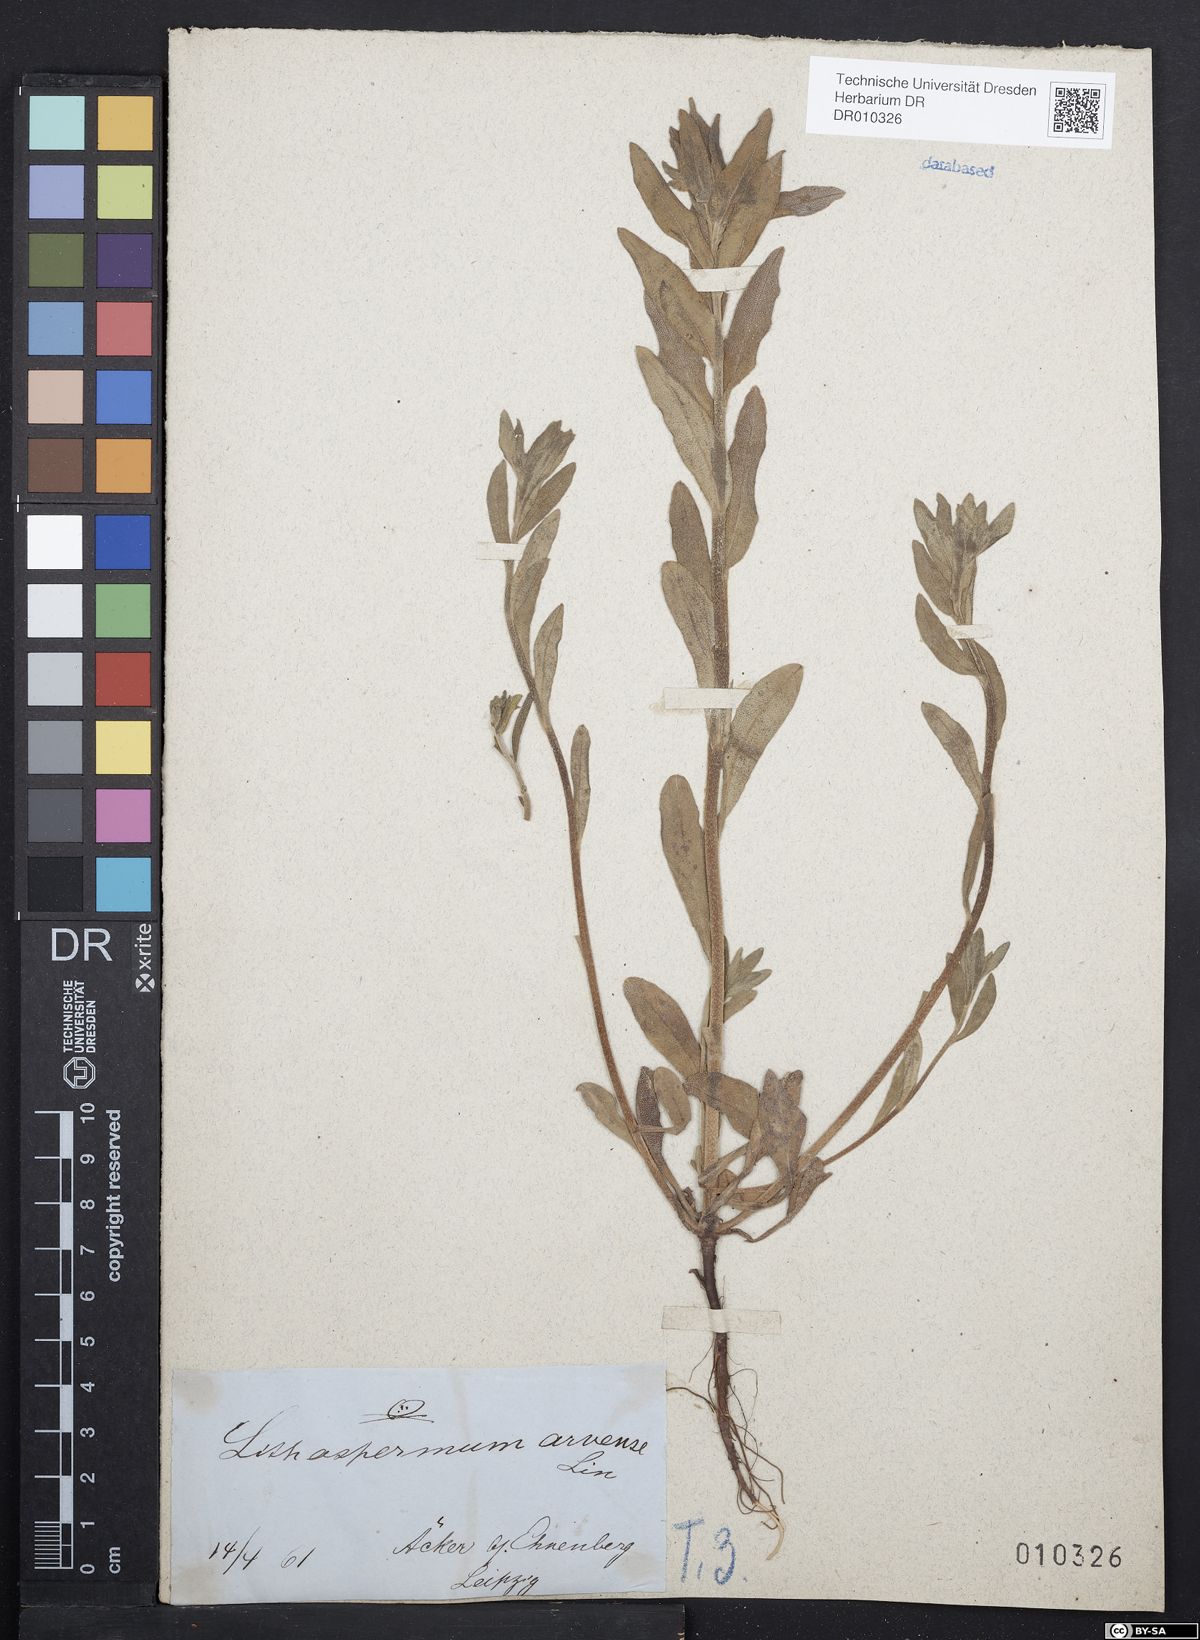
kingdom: Plantae
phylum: Tracheophyta
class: Magnoliopsida
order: Boraginales
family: Boraginaceae
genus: Buglossoides
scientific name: Buglossoides arvensis
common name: Corn gromwell
